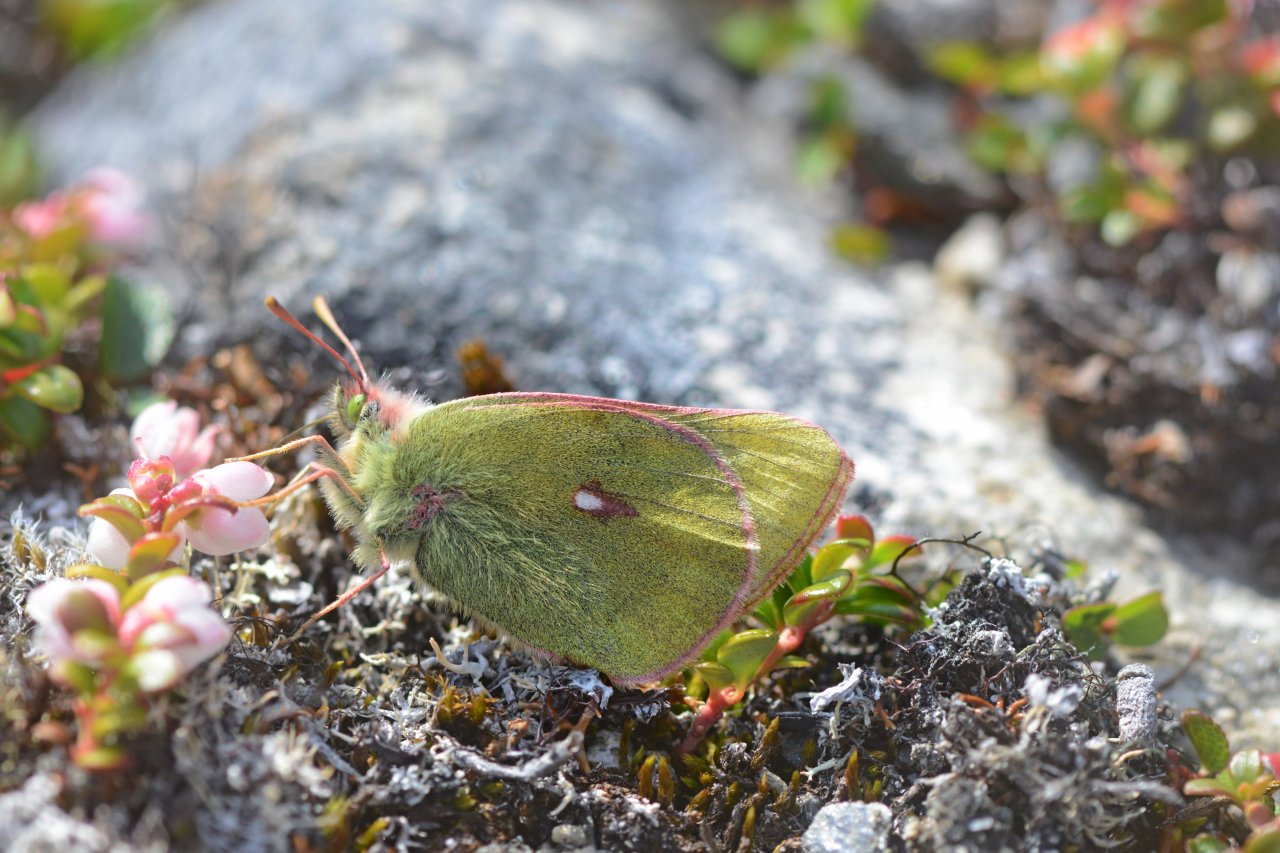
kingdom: Animalia
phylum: Arthropoda
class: Insecta
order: Lepidoptera
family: Pieridae
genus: Colias
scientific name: Colias hecla
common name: Hecla Sulphur
